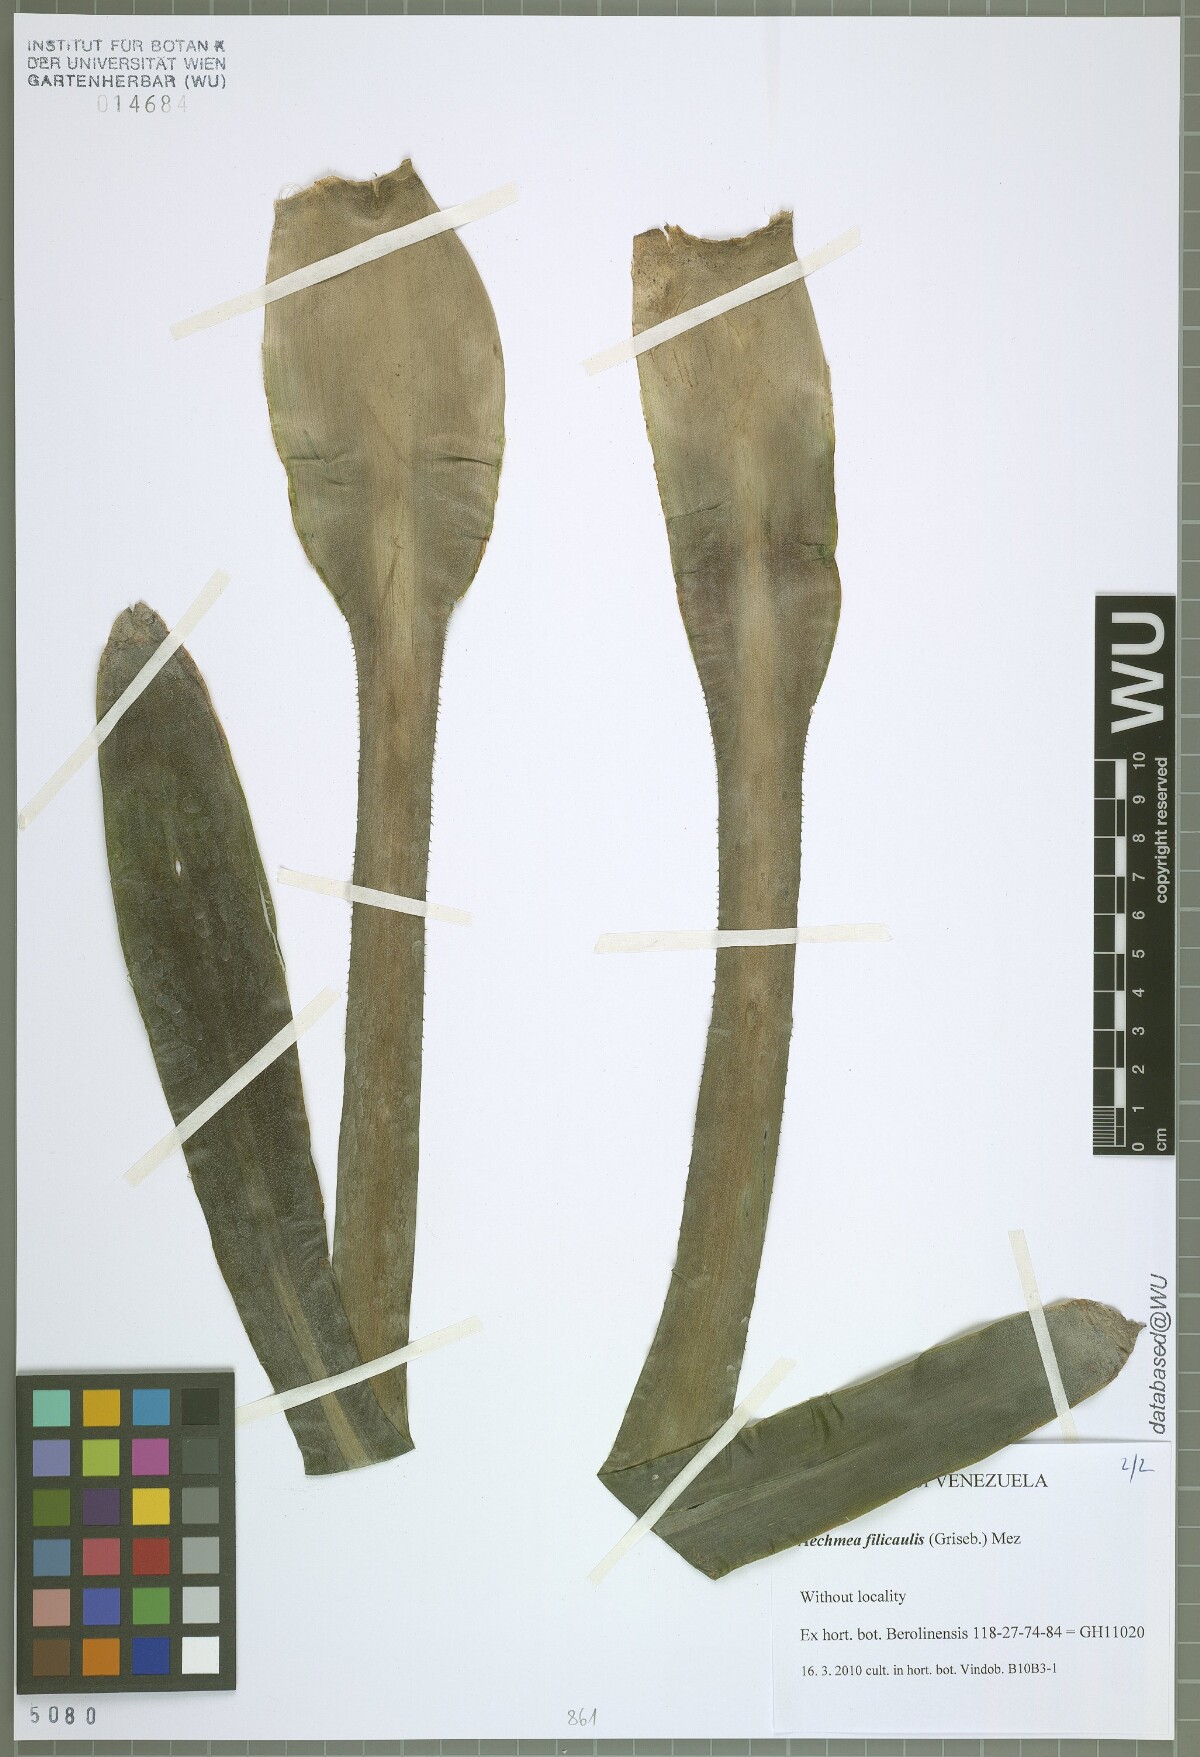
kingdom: Plantae
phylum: Tracheophyta
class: Liliopsida
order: Poales
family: Bromeliaceae
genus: Aechmea
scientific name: Aechmea filicaulis
